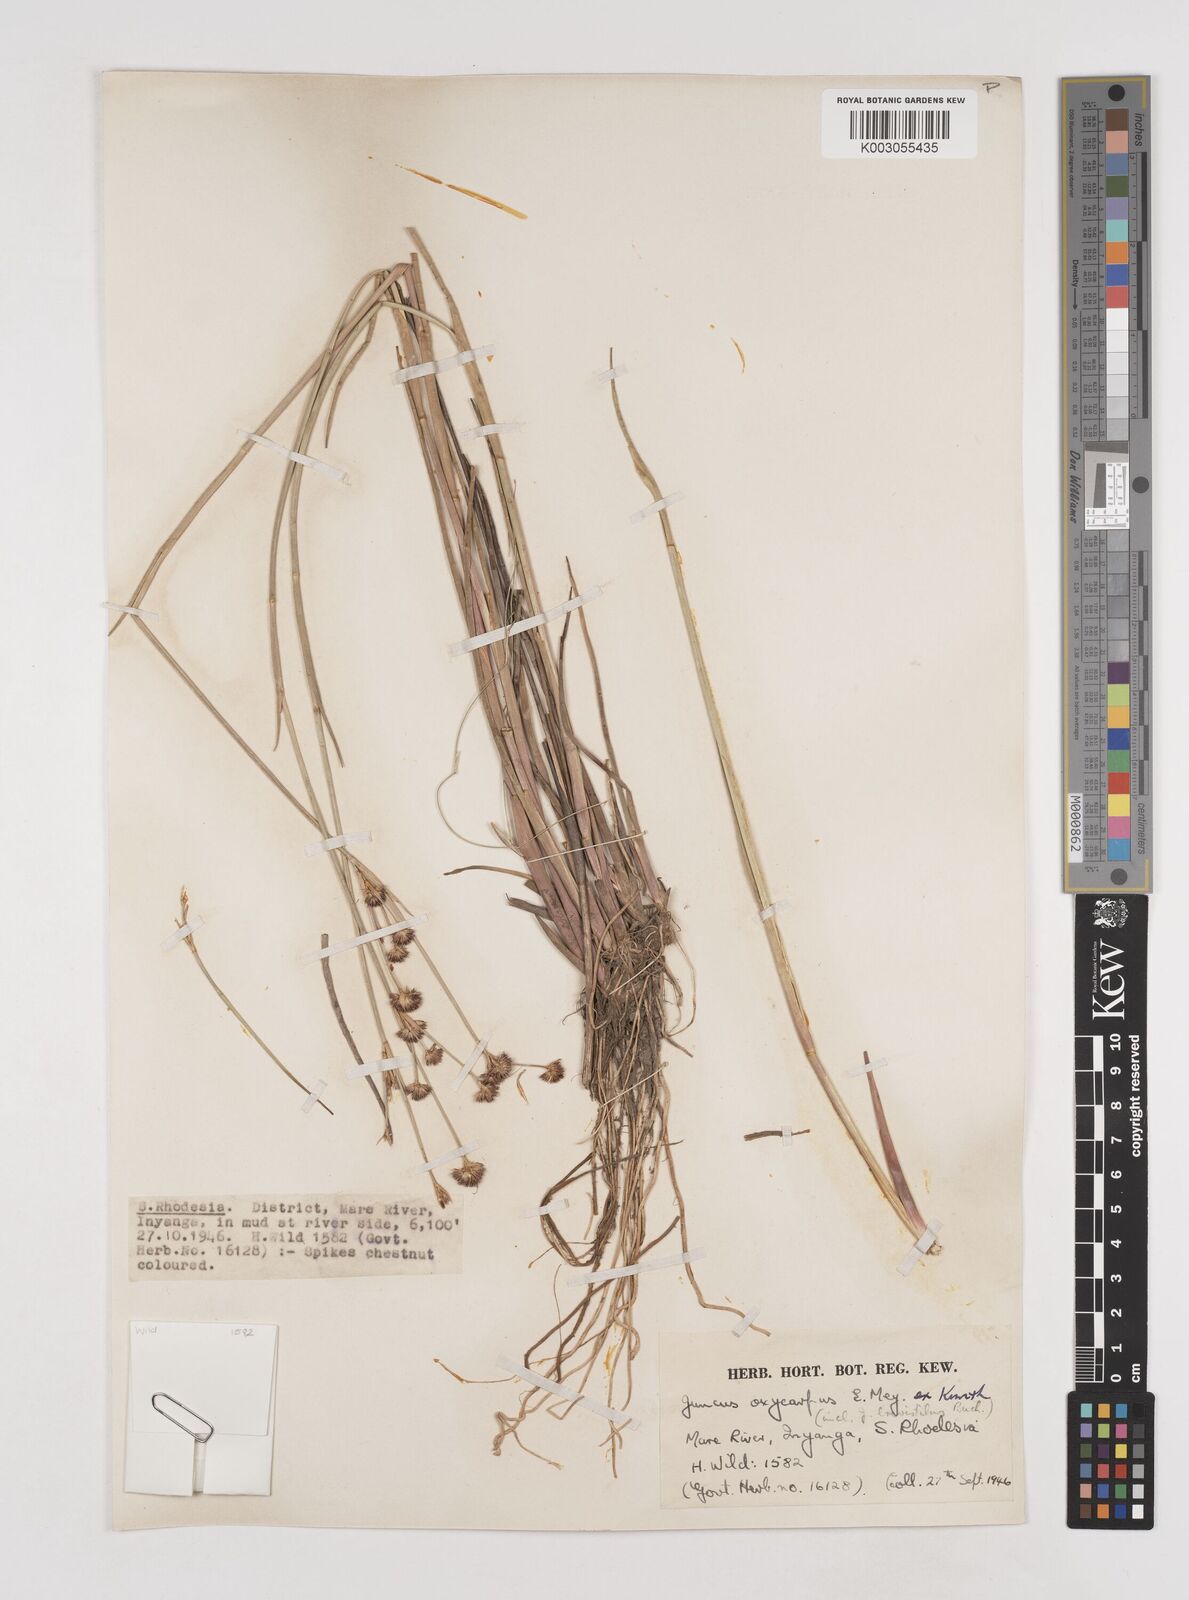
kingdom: Plantae
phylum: Tracheophyta
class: Liliopsida
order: Poales
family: Juncaceae
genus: Juncus
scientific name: Juncus oxycarpus
